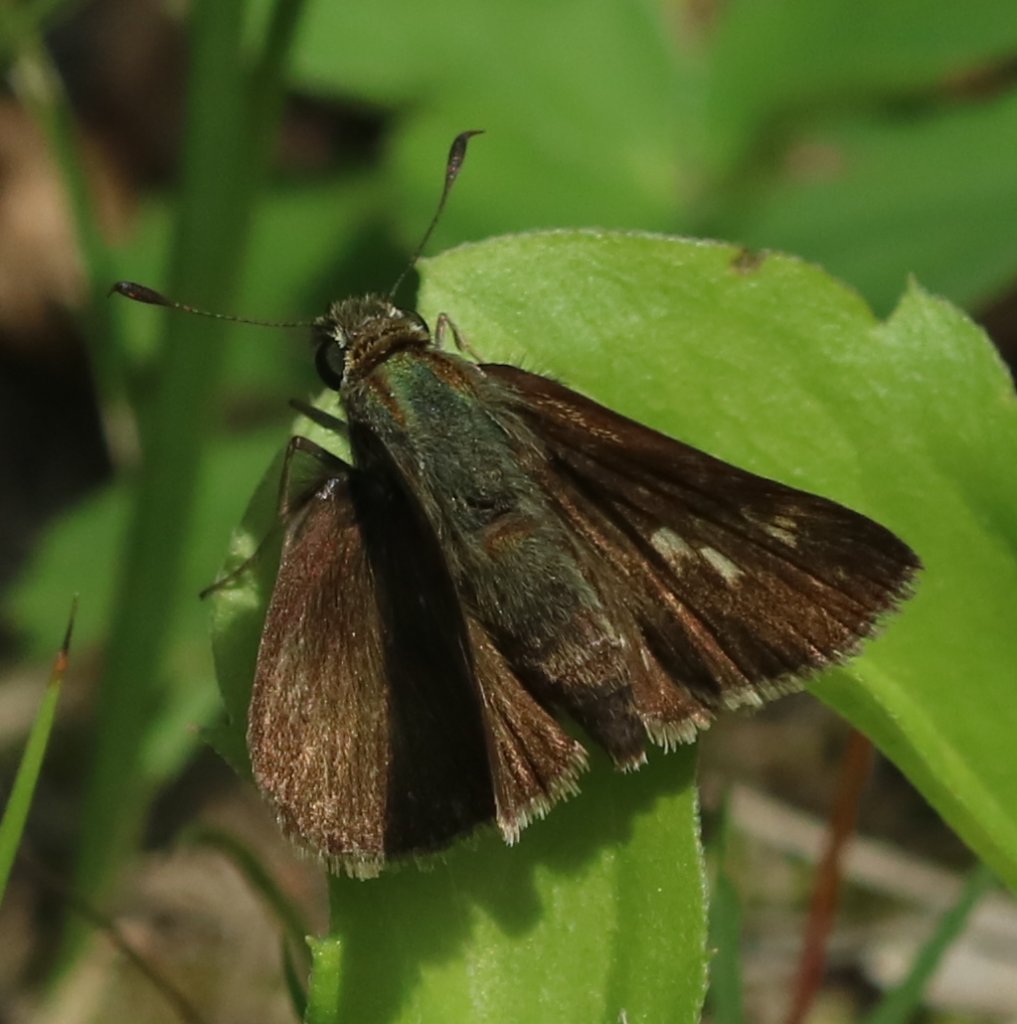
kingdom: Animalia
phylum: Arthropoda
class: Insecta
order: Lepidoptera
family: Hesperiidae
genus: Polites
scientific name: Polites themistocles
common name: Tawny-edged Skipper
